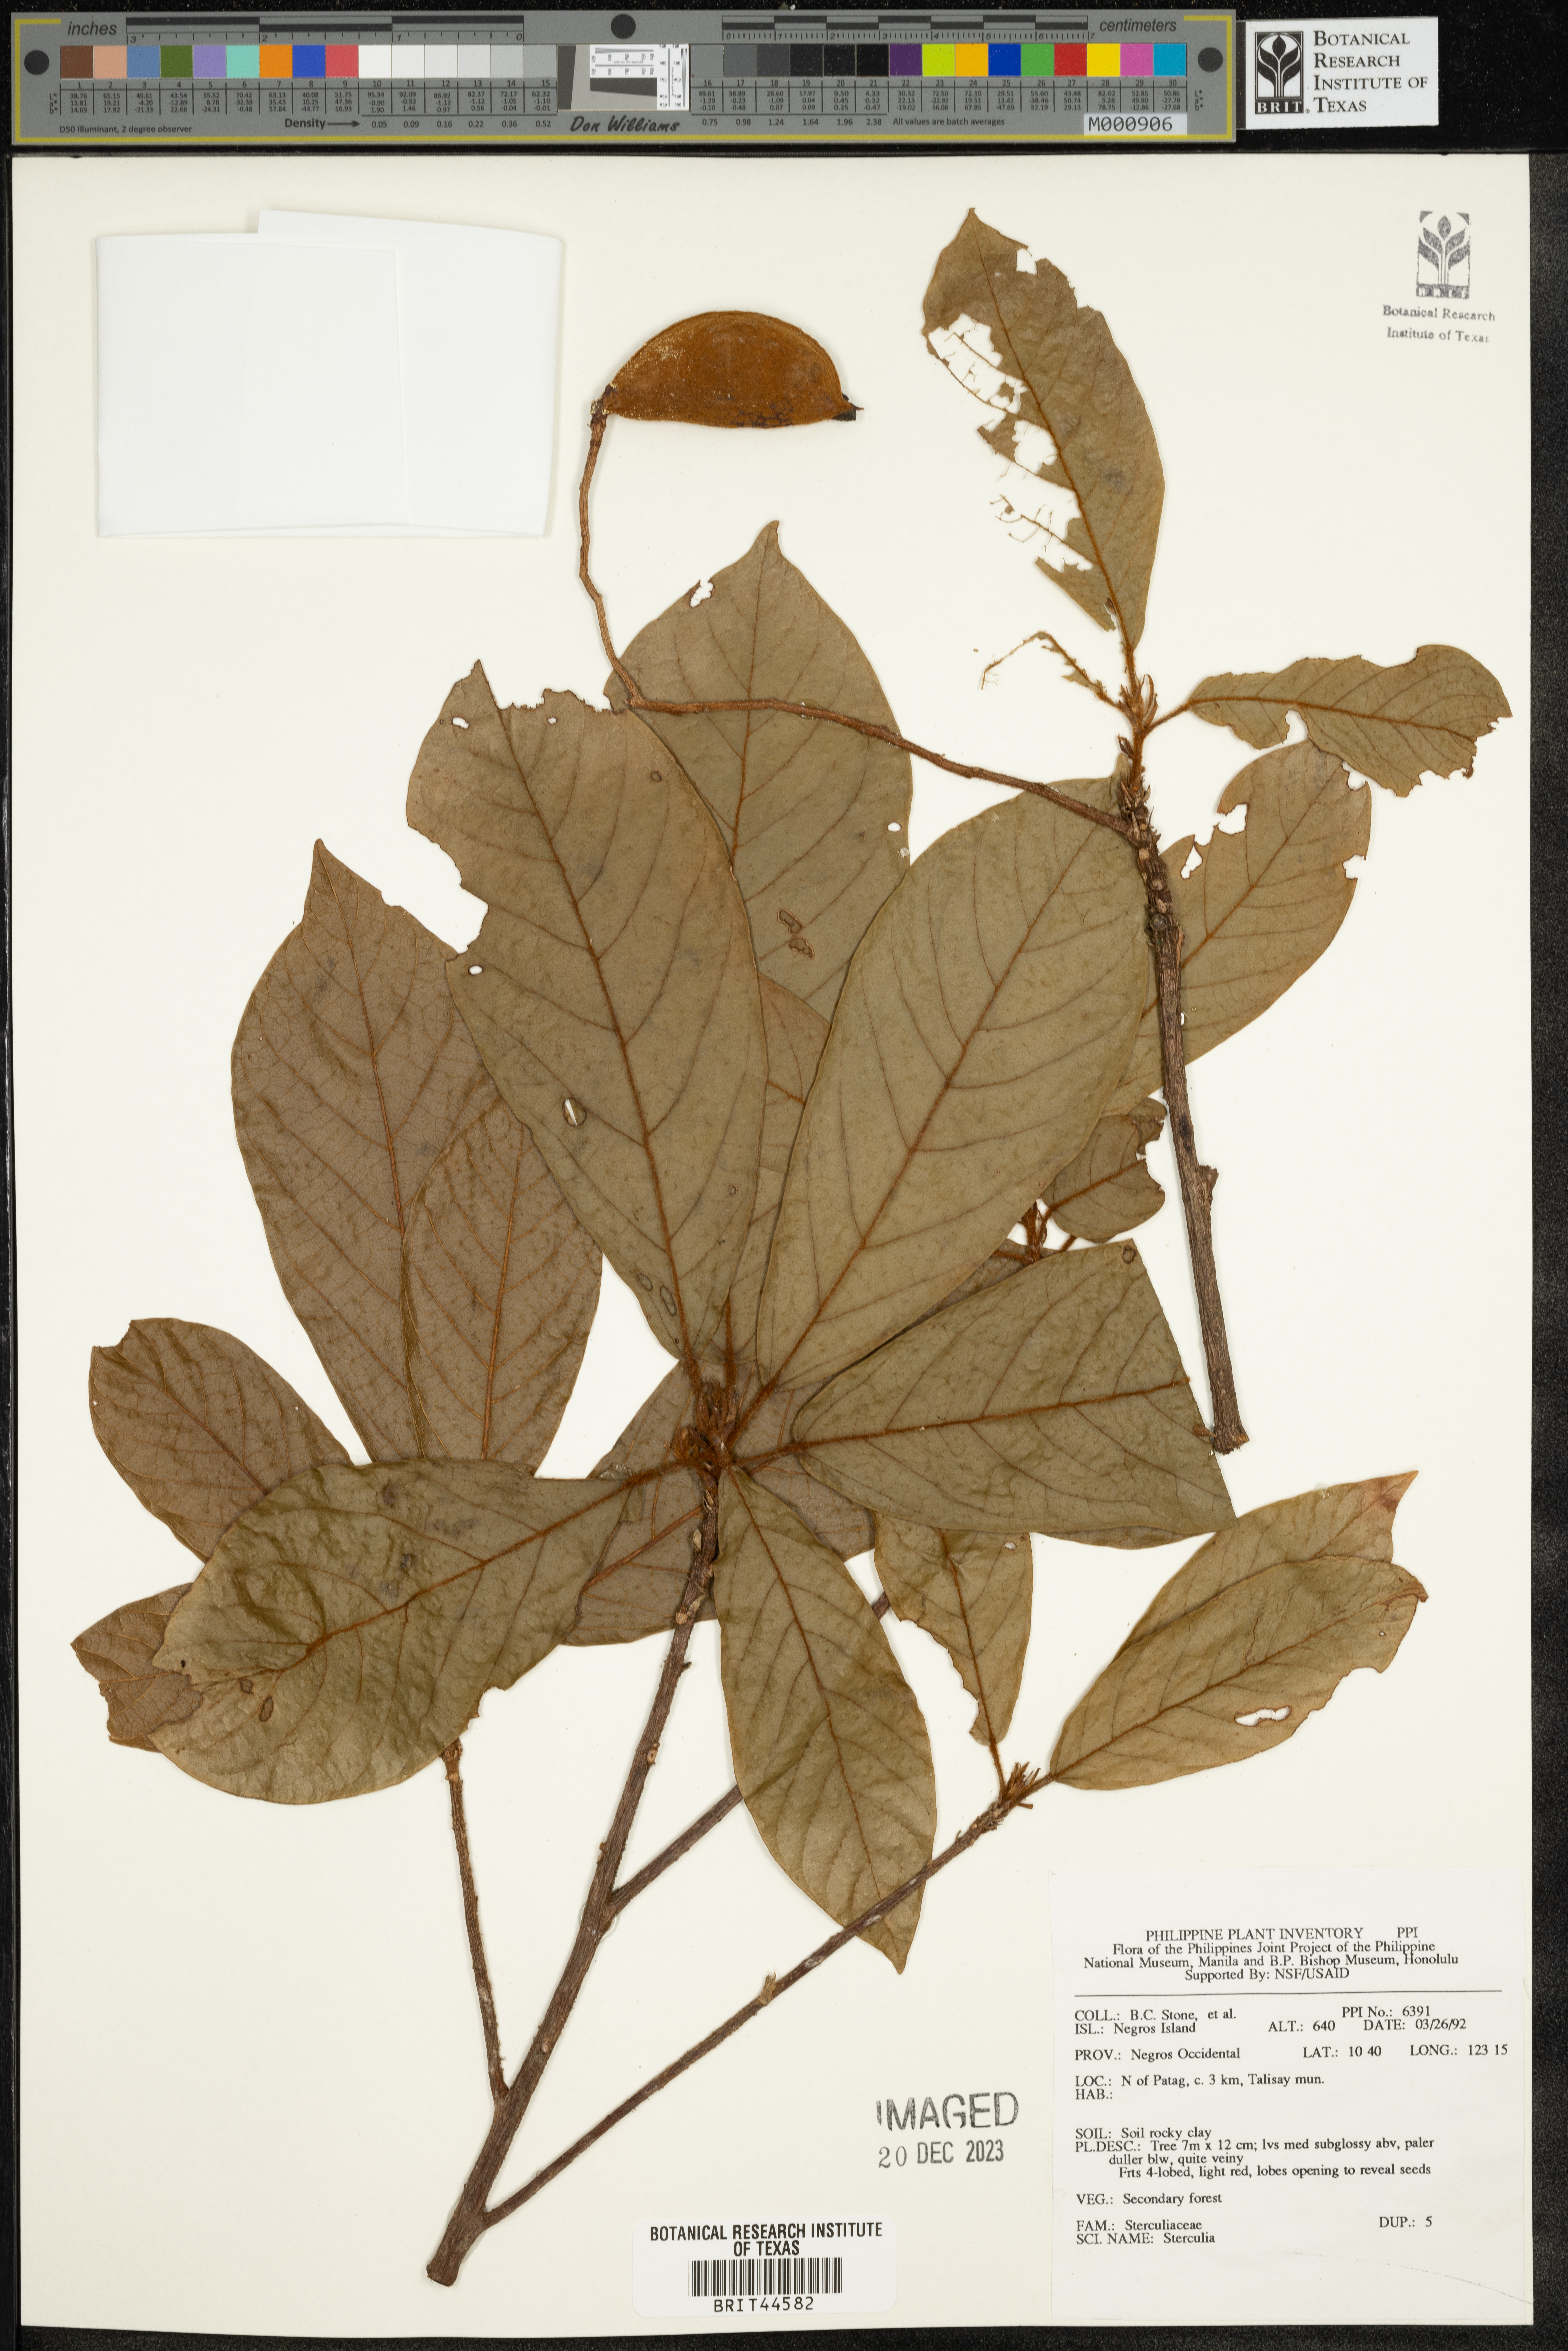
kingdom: Plantae
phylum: Tracheophyta
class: Magnoliopsida
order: Malvales
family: Malvaceae
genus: Sterculia
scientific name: Sterculia
